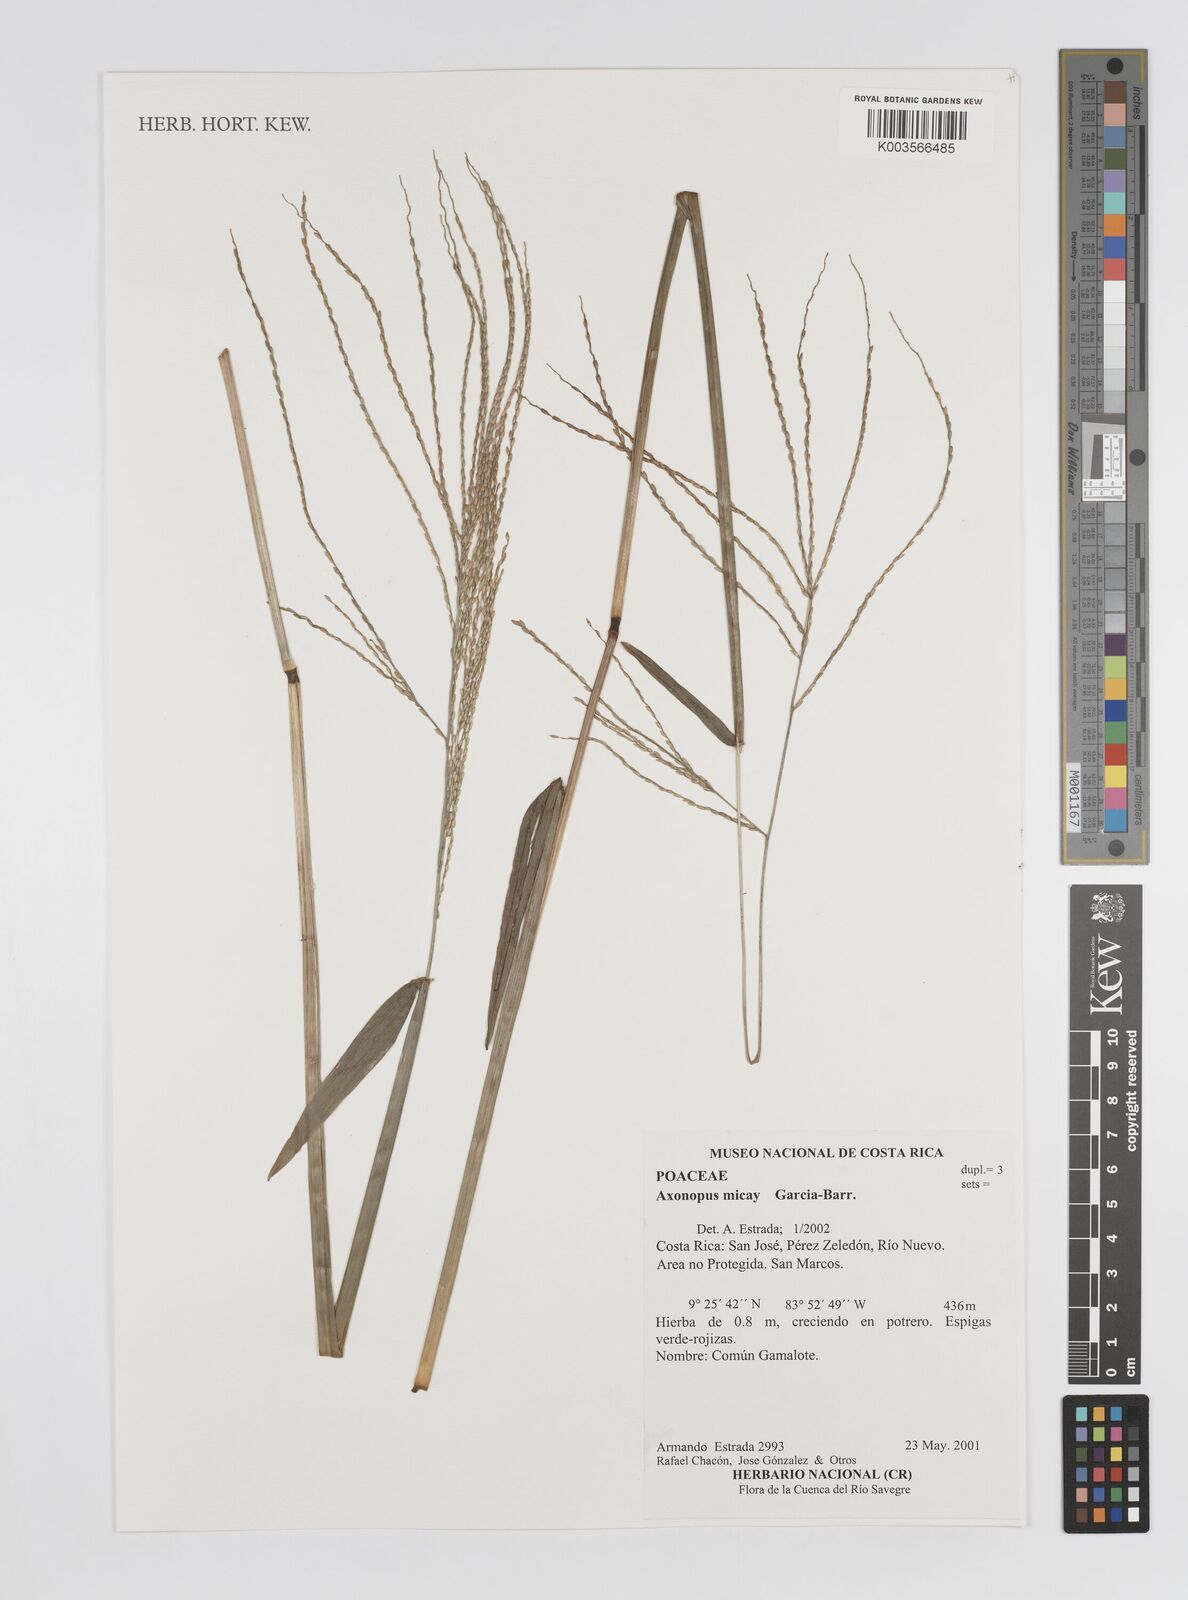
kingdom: Plantae
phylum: Tracheophyta
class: Liliopsida
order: Poales
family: Poaceae
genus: Axonopus
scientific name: Axonopus scoparius
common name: Imperial grass
